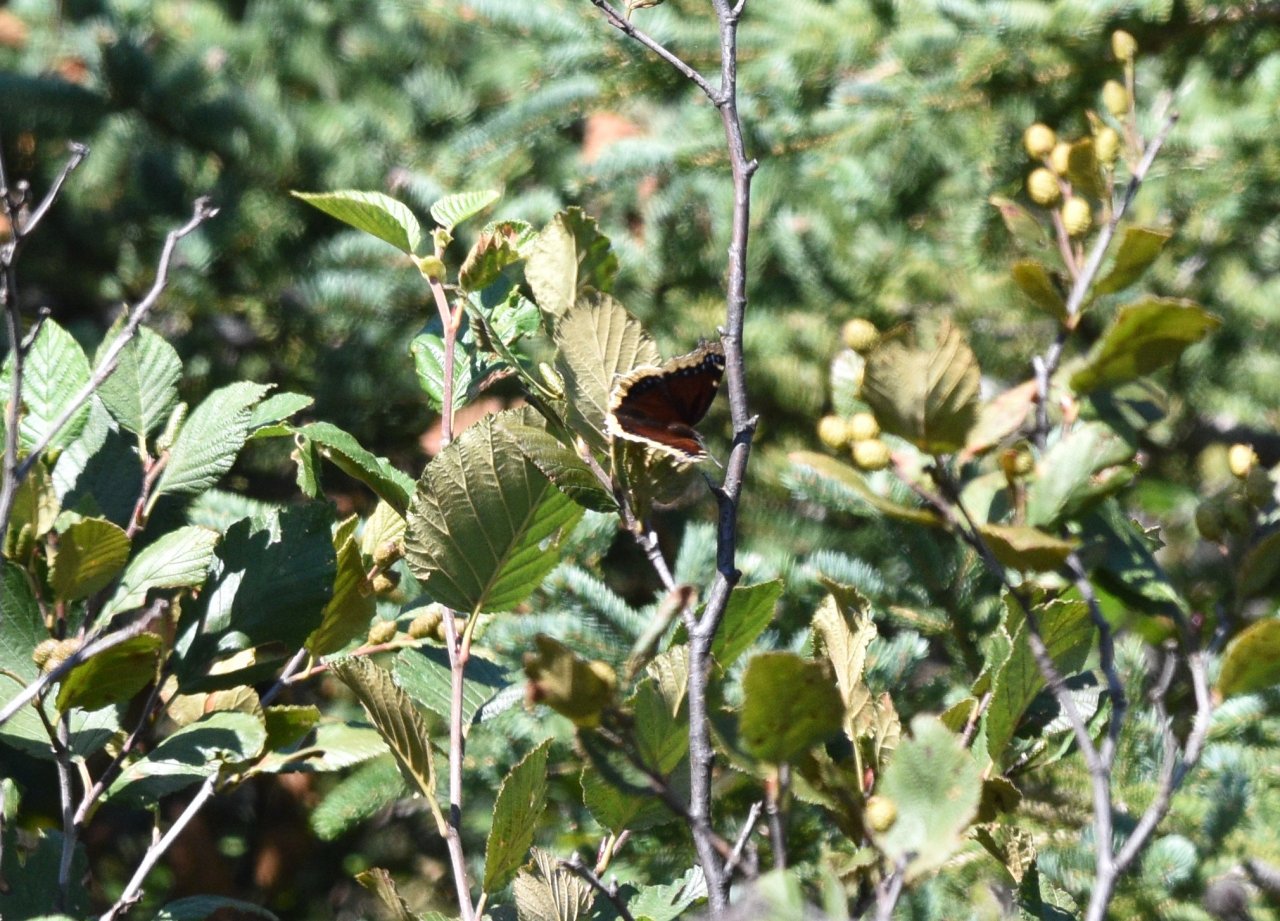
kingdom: Animalia
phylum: Arthropoda
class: Insecta
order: Lepidoptera
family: Nymphalidae
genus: Nymphalis
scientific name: Nymphalis antiopa
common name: Mourning Cloak
